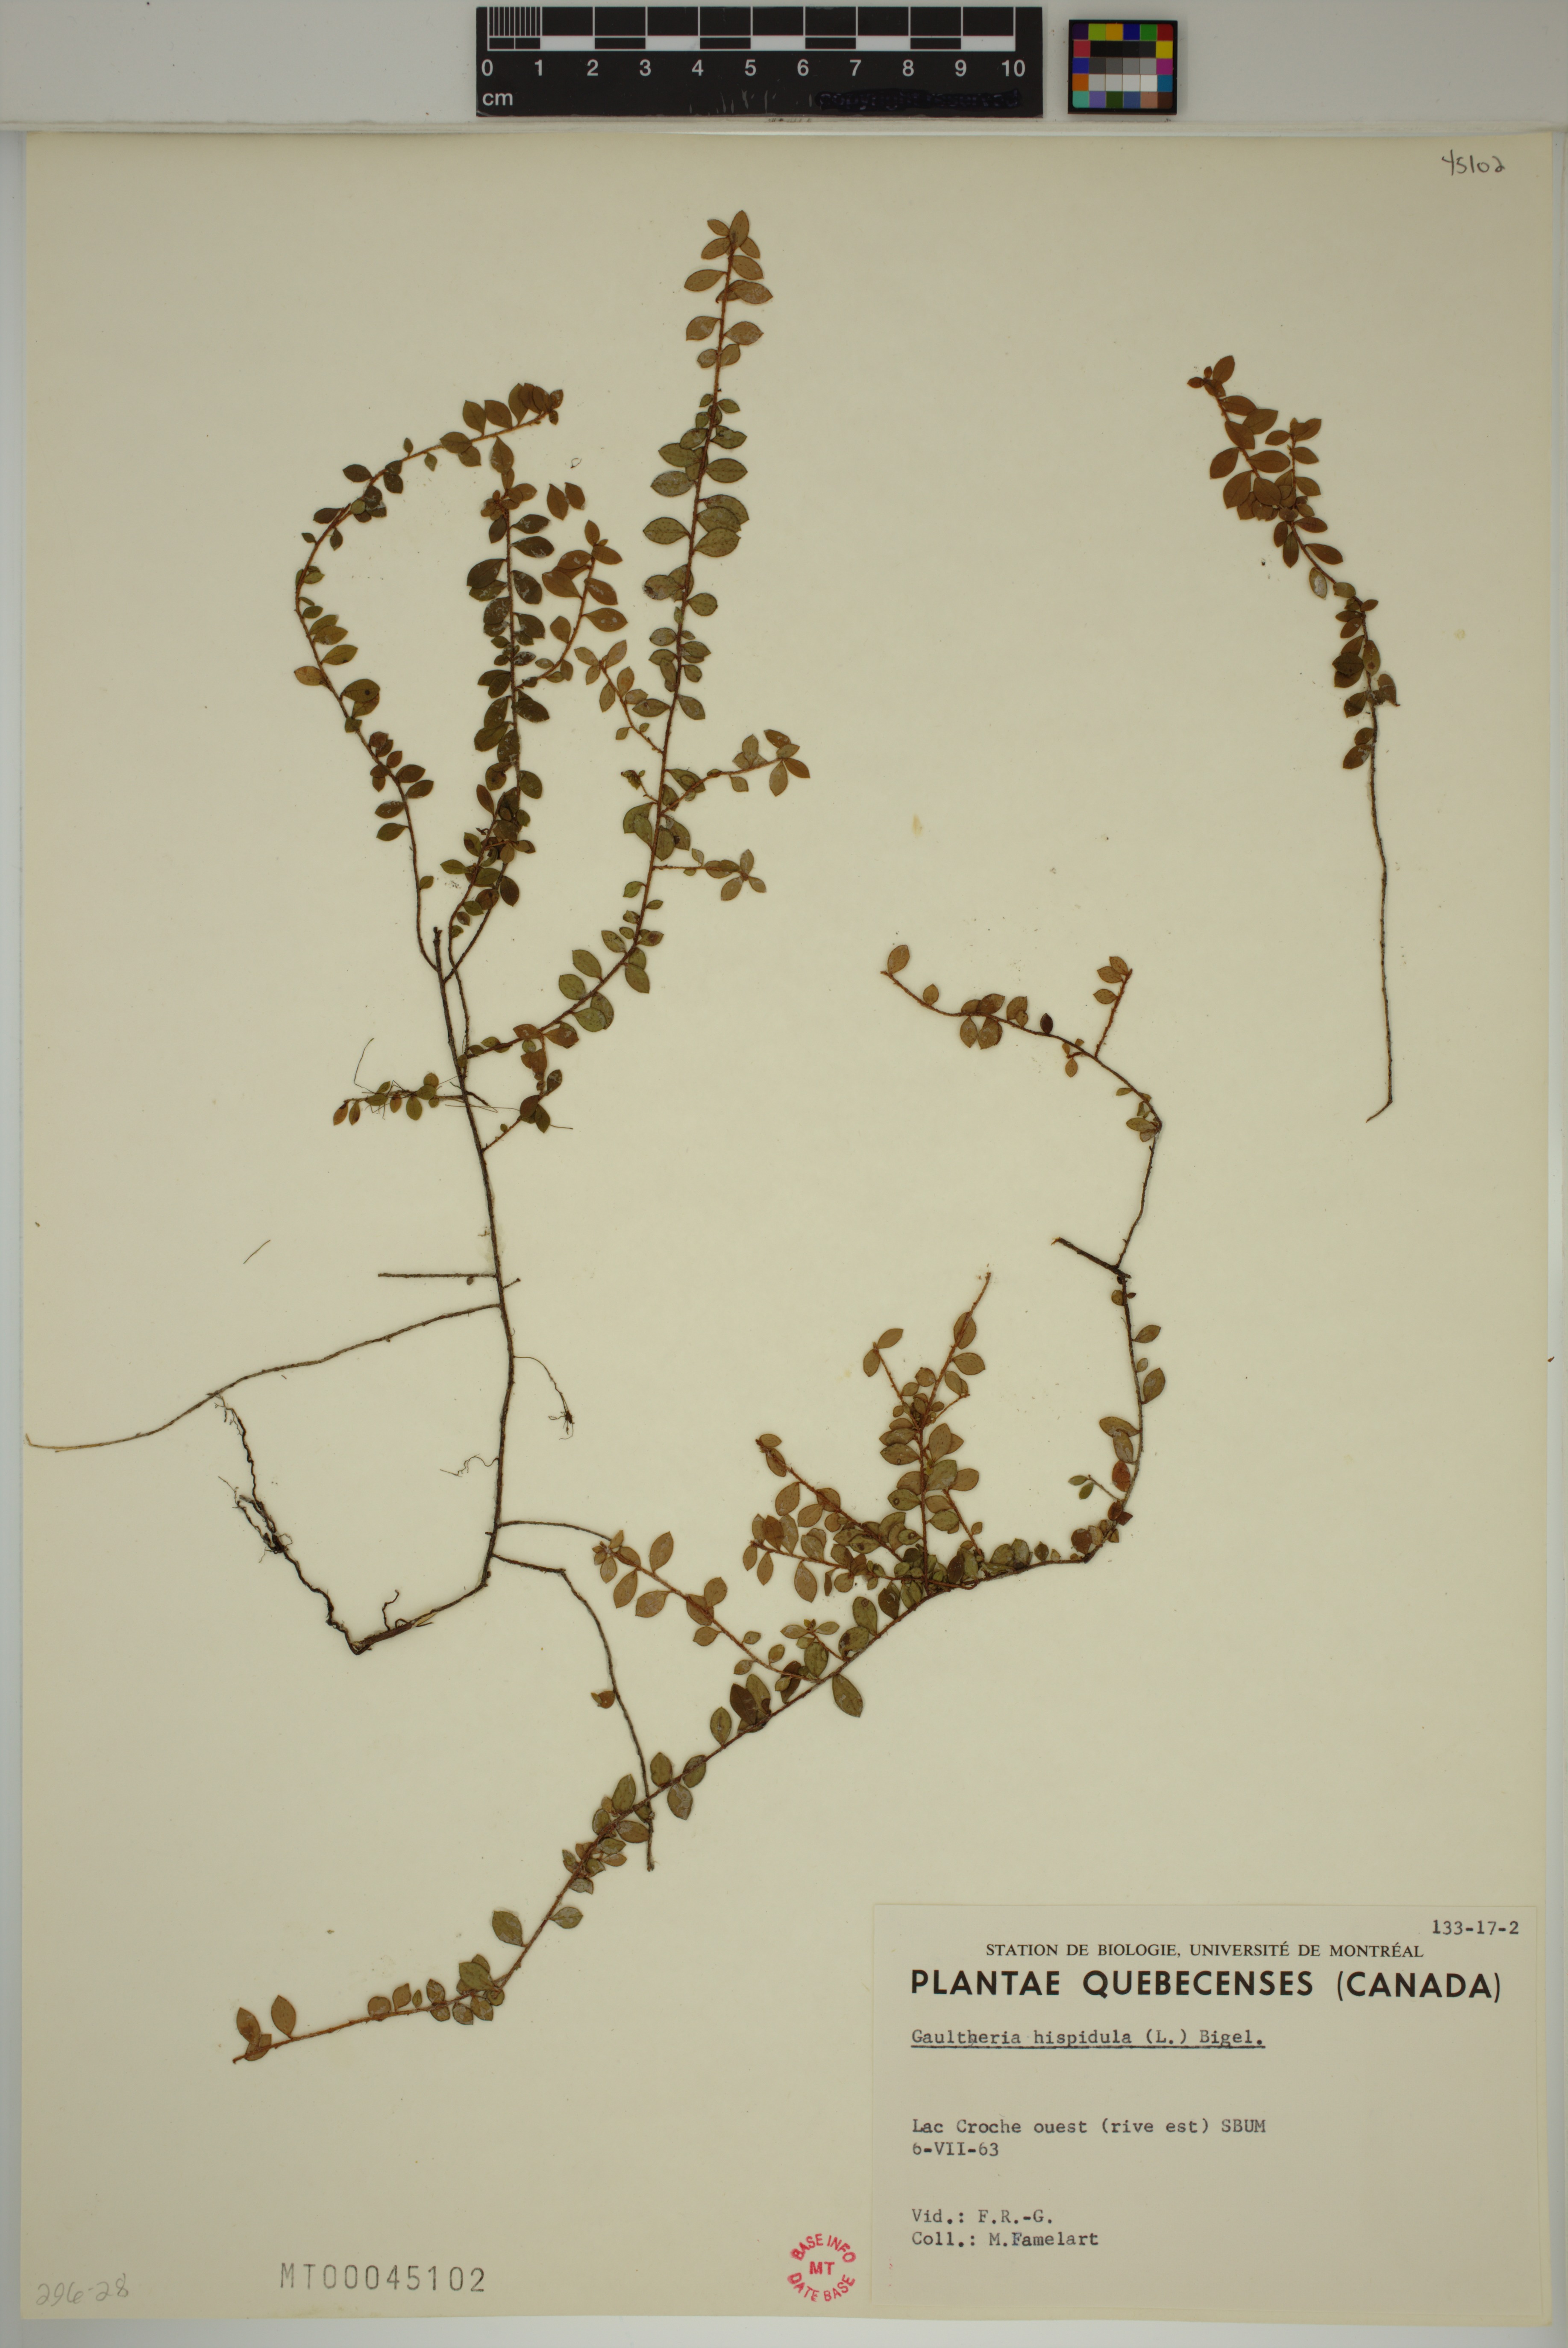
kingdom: Plantae
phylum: Tracheophyta
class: Magnoliopsida
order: Ericales
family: Ericaceae
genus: Gaultheria
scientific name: Gaultheria hispidula
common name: Cancer wintergreen
